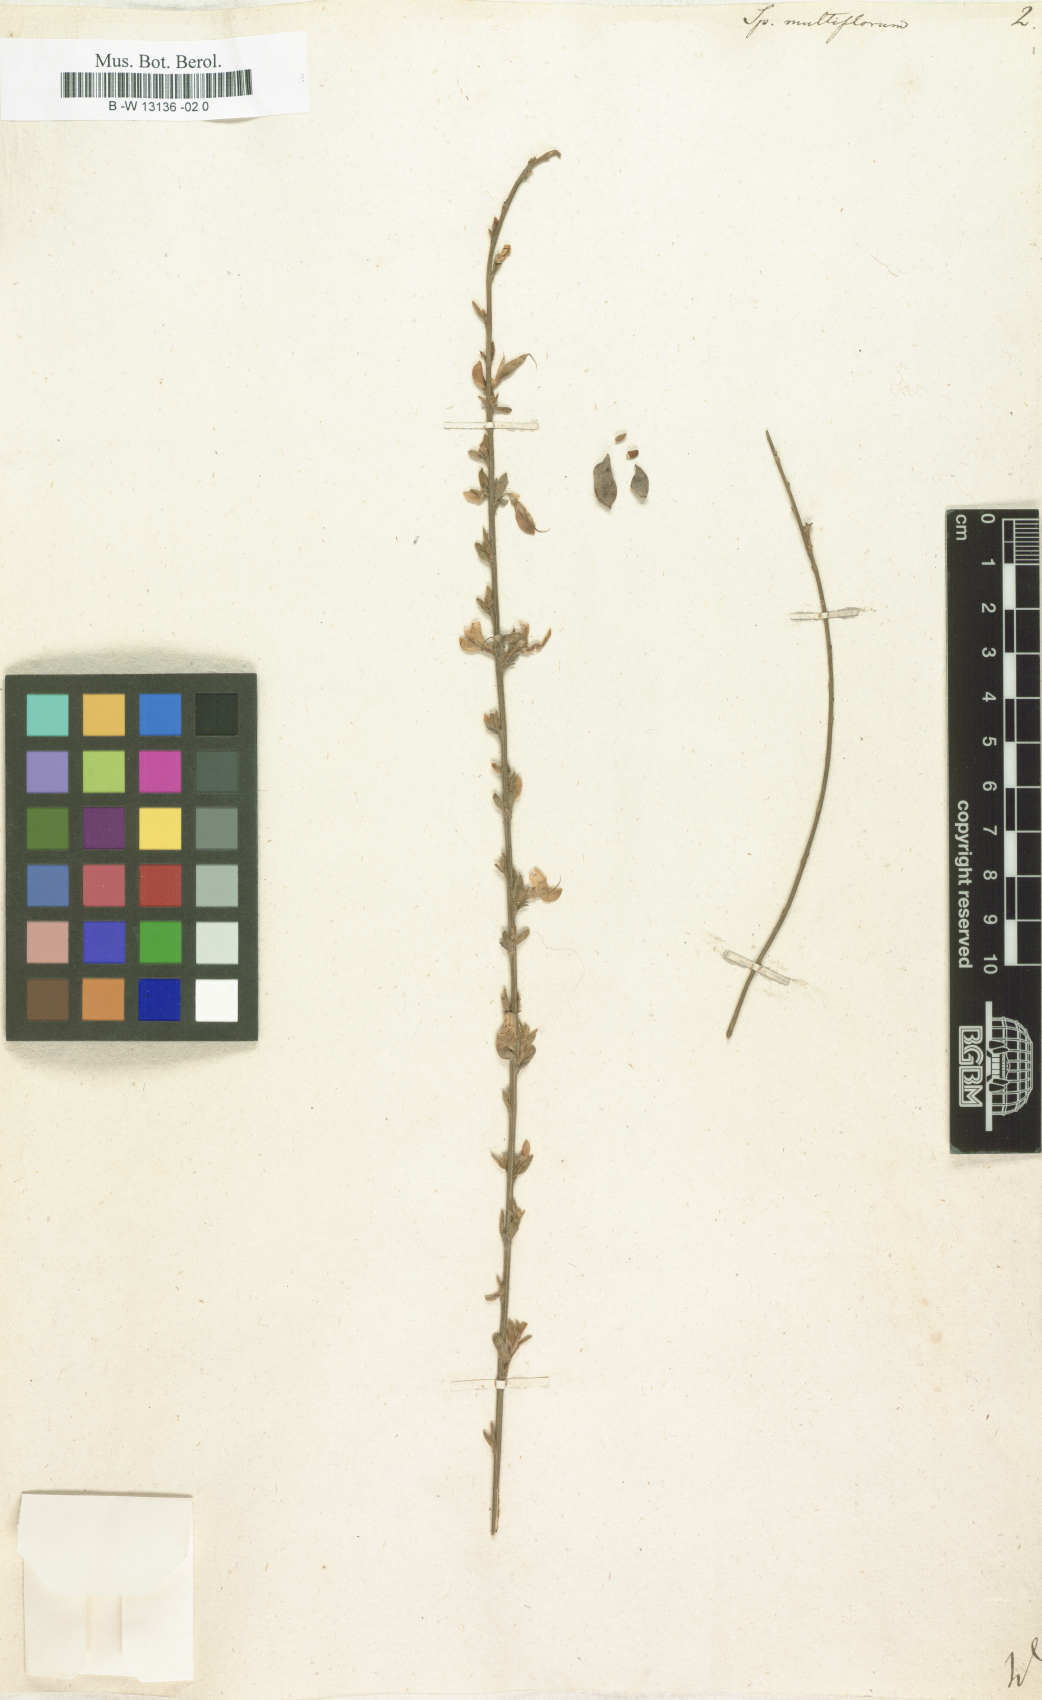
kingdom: Plantae
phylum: Tracheophyta
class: Magnoliopsida
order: Fabales
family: Fabaceae
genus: Cytisus
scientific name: Cytisus multiflorus
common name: White broom
